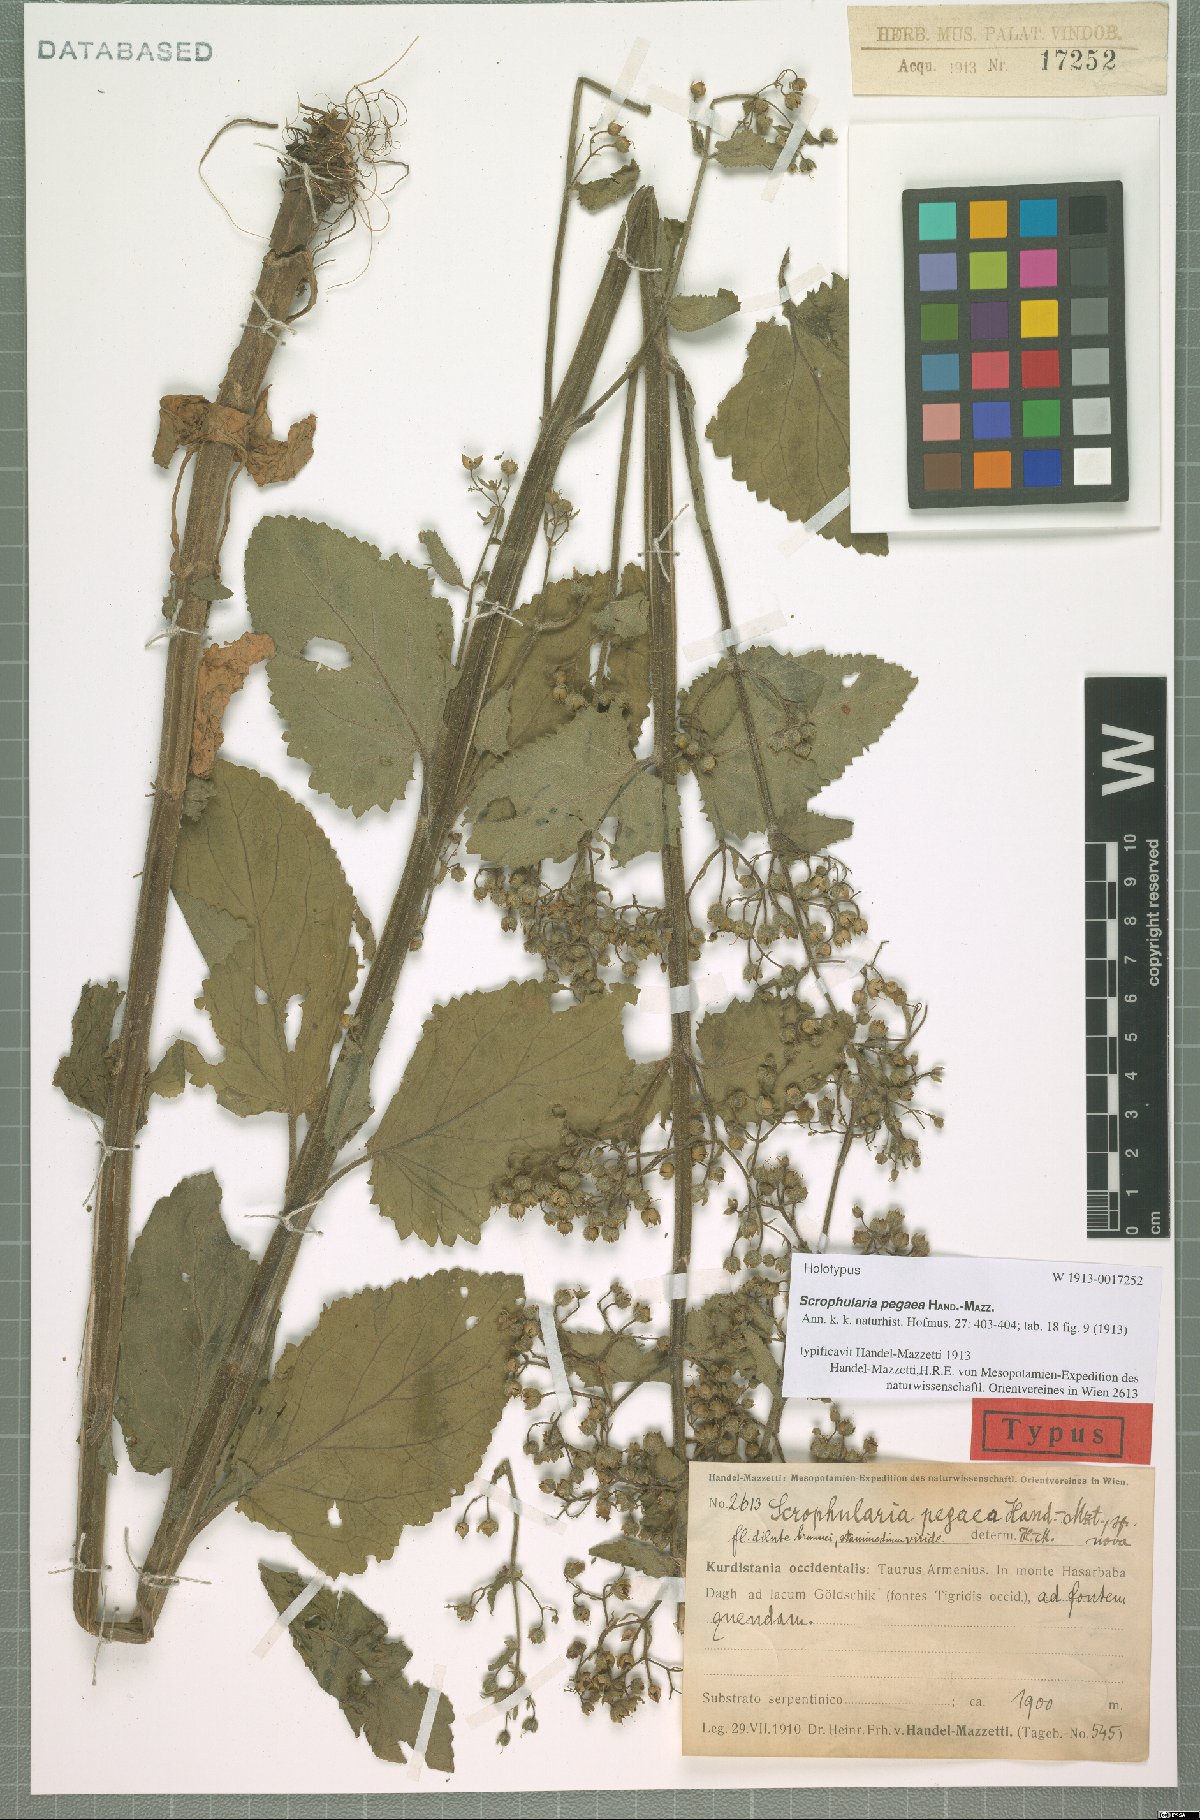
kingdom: Plantae
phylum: Tracheophyta
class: Magnoliopsida
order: Lamiales
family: Scrophulariaceae
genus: Scrophularia
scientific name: Scrophularia pegaea
